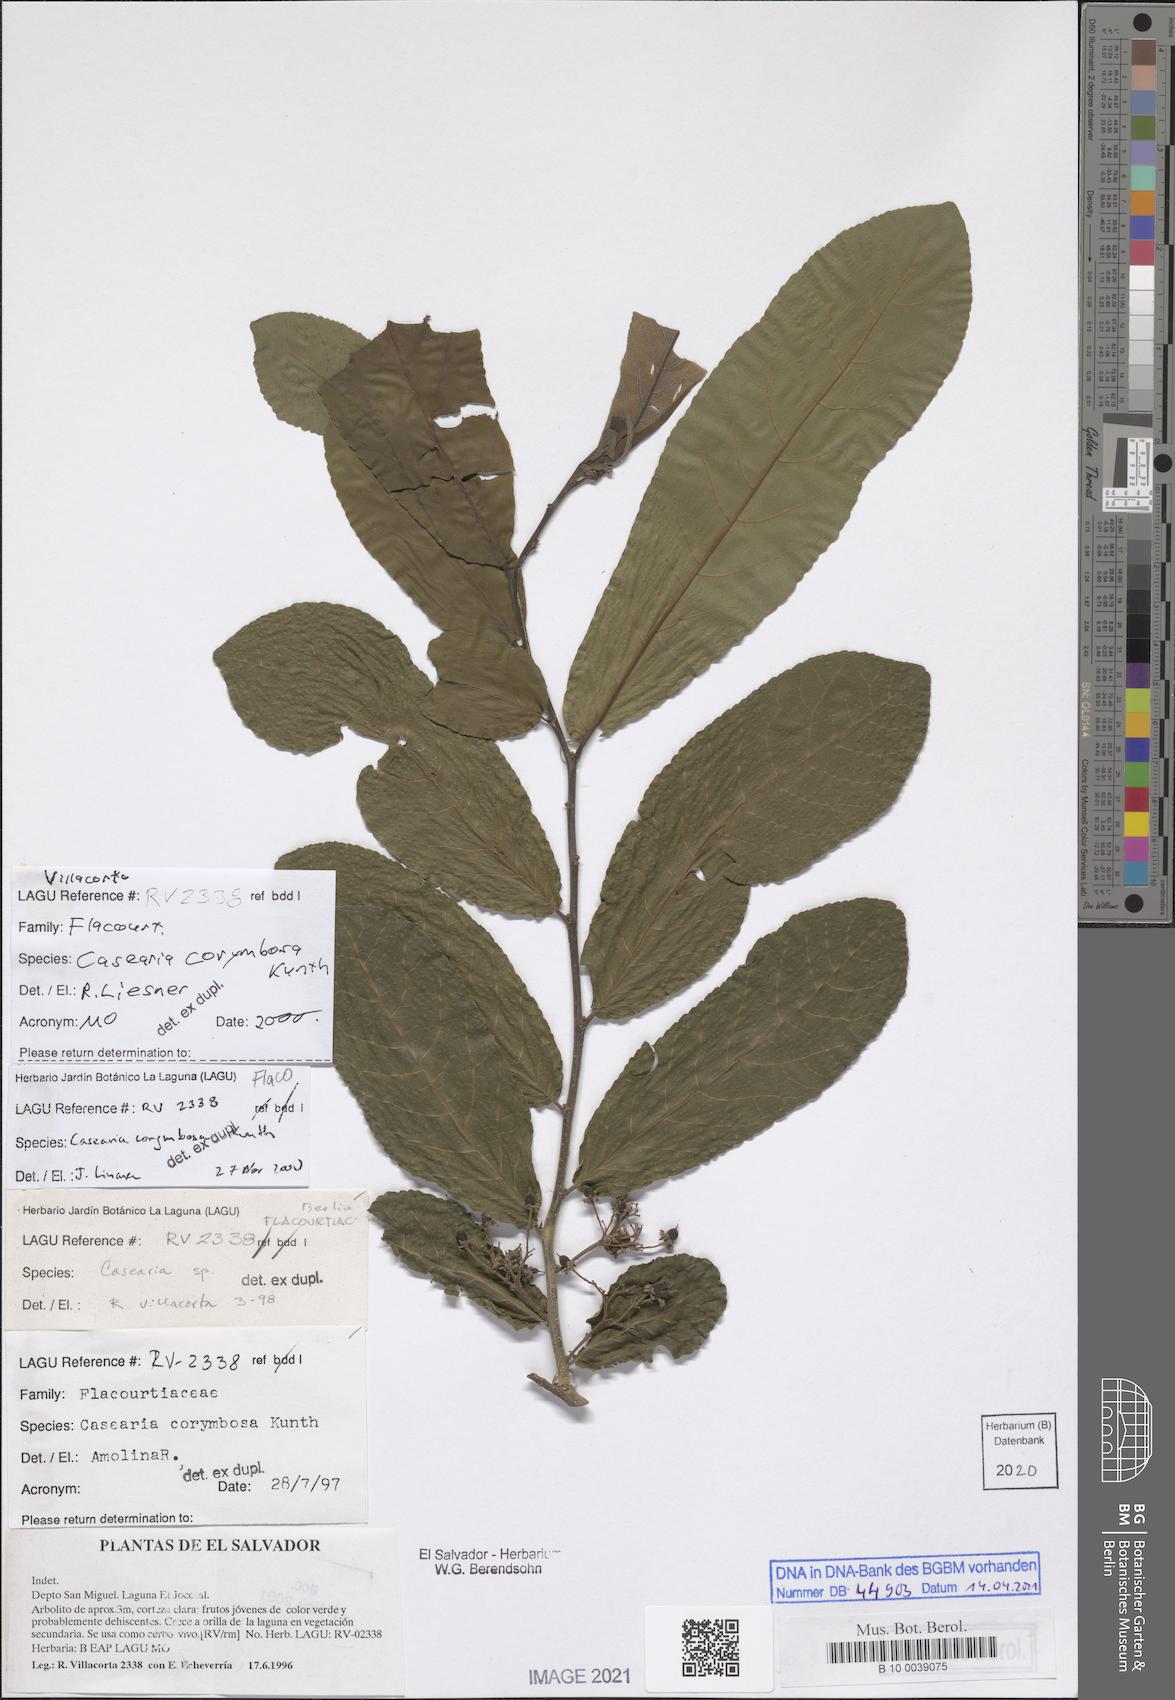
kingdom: Plantae
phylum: Tracheophyta
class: Magnoliopsida
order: Malpighiales
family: Salicaceae
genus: Casearia
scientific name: Casearia corymbosa
